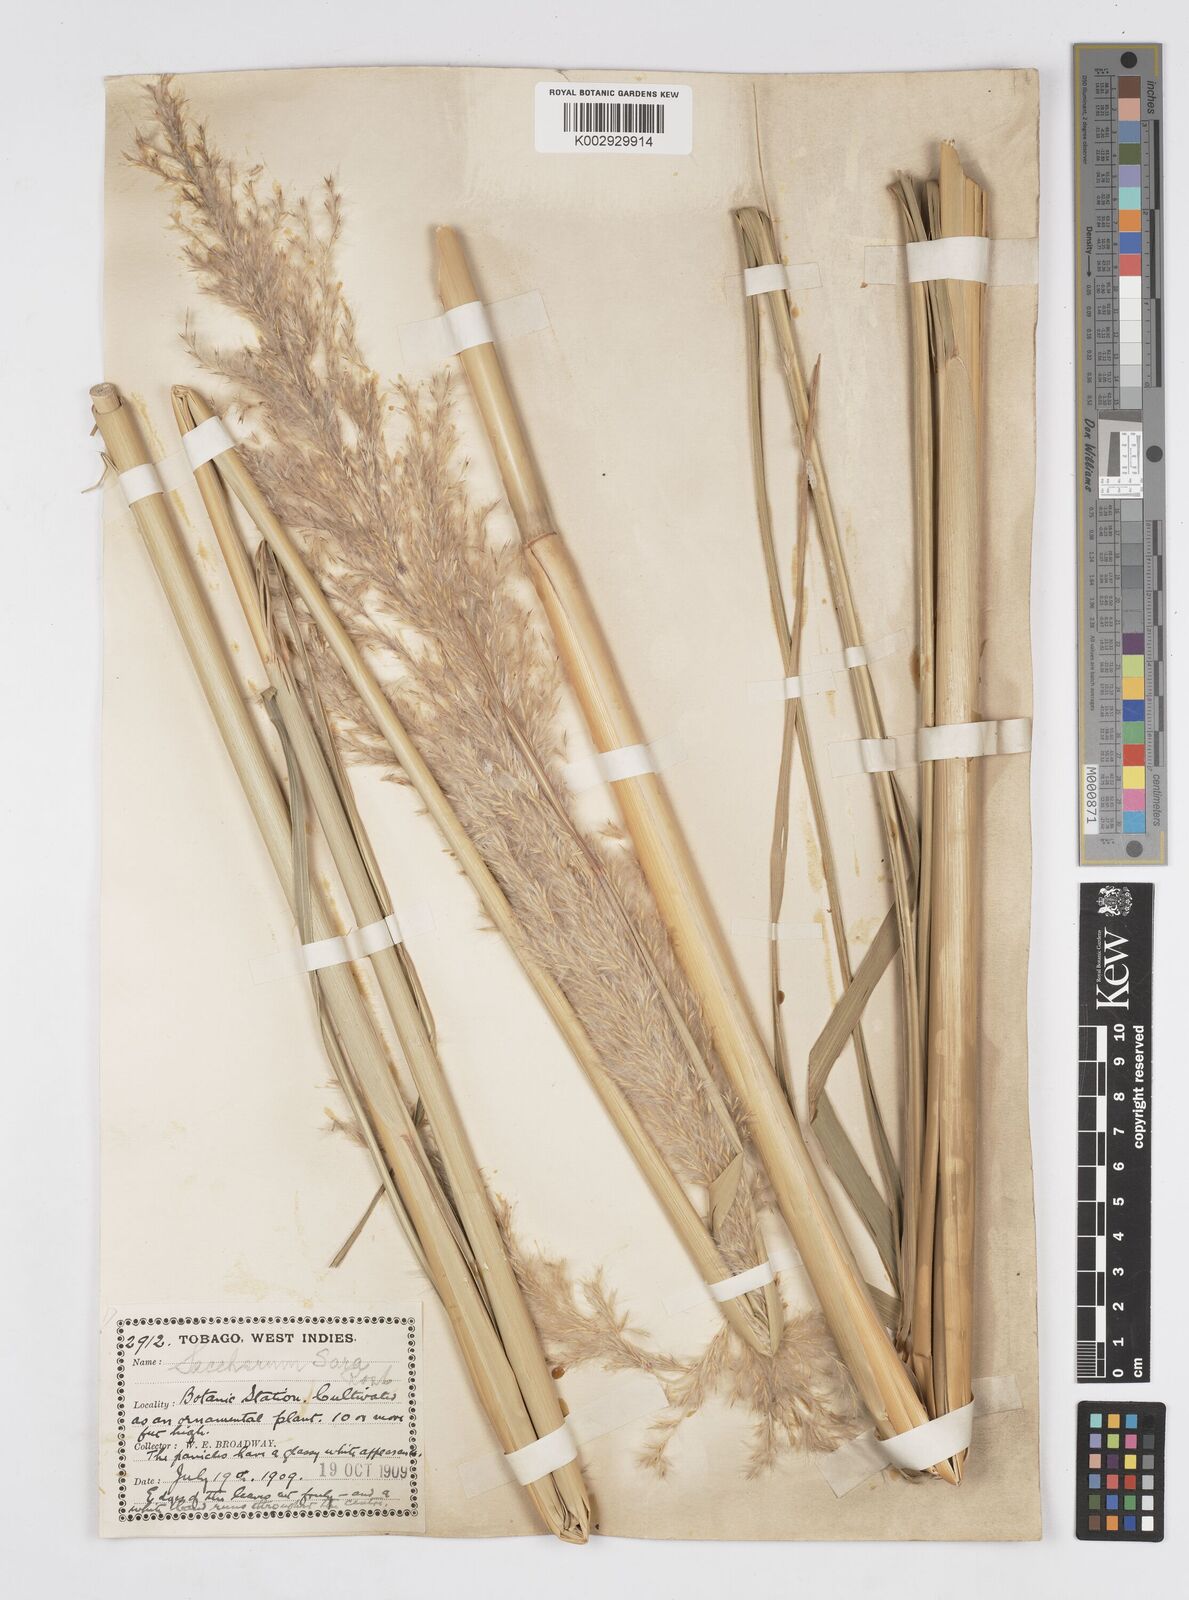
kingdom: Plantae
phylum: Tracheophyta
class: Liliopsida
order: Poales
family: Poaceae
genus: Tripidium
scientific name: Tripidium bengalense
